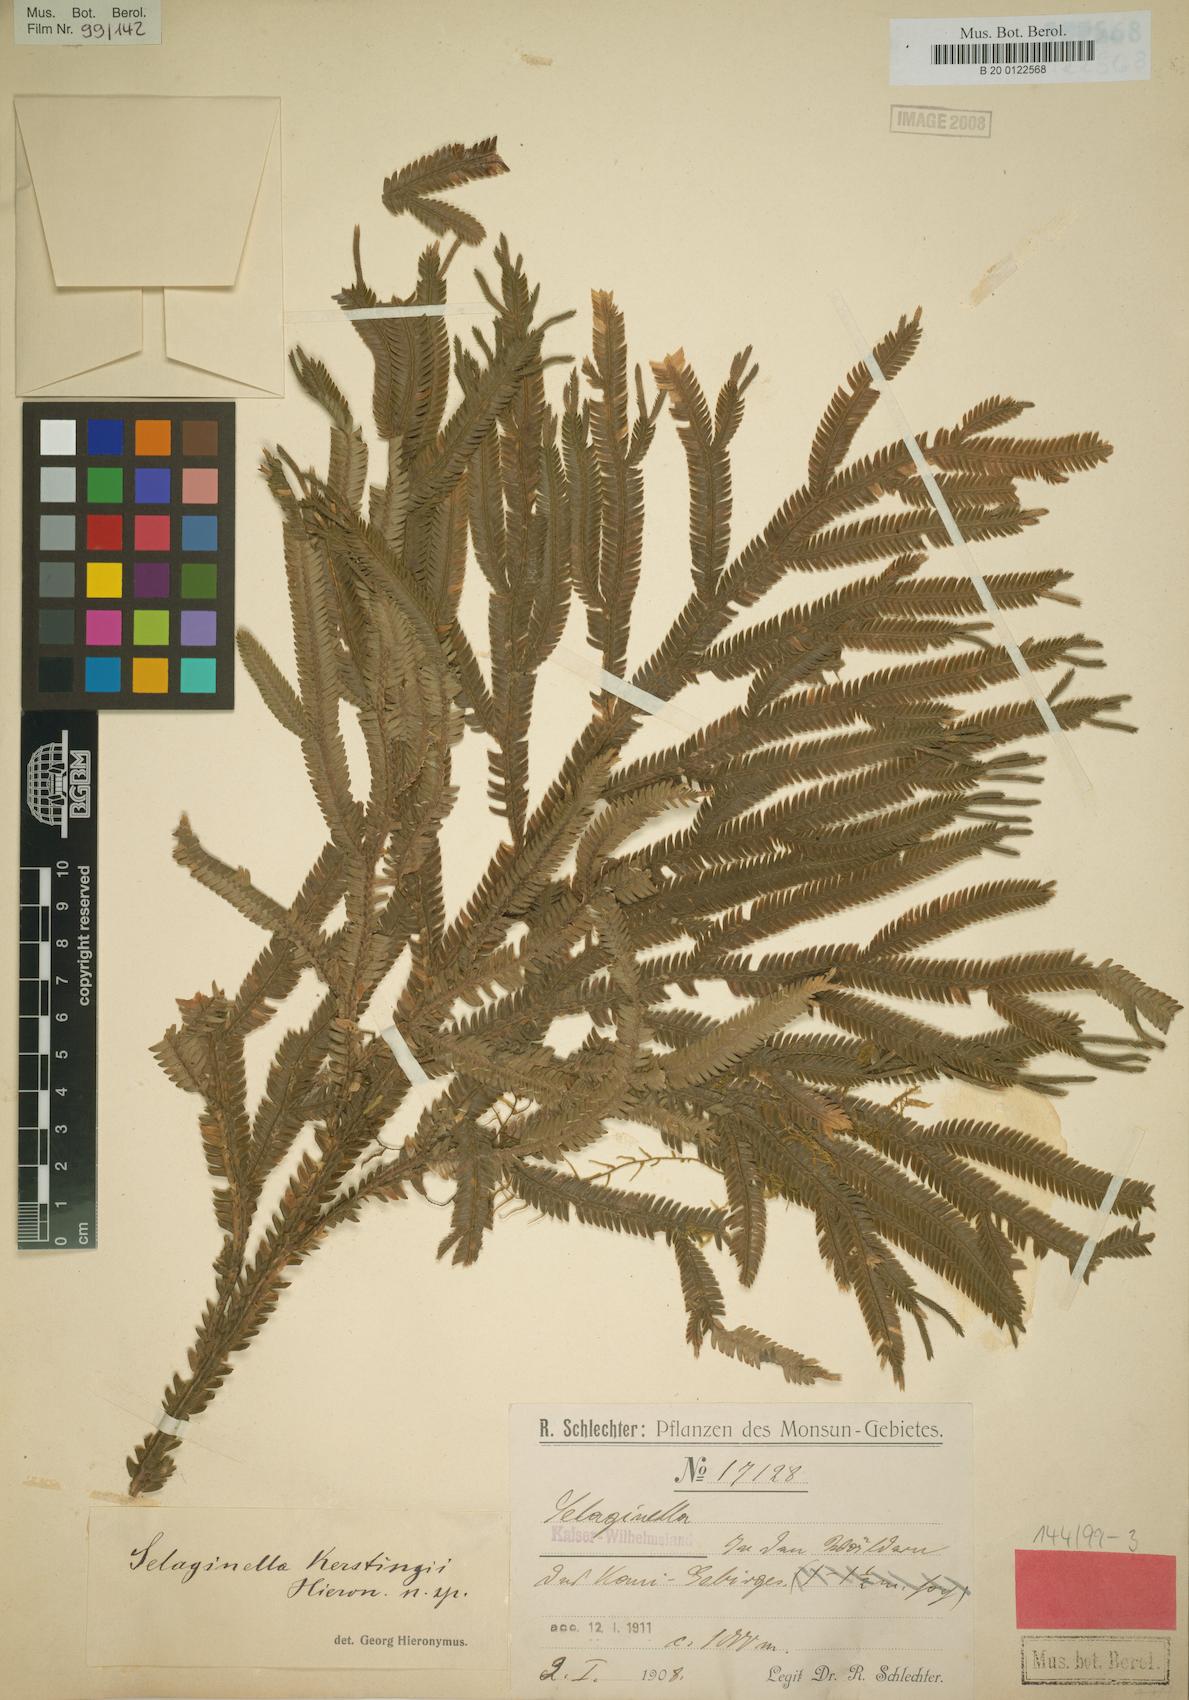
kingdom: Plantae
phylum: Tracheophyta
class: Lycopodiopsida
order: Selaginellales
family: Selaginellaceae
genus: Selaginella
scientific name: Selaginella kerstingii
